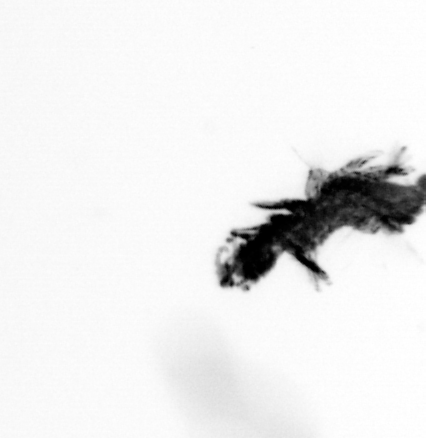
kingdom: Animalia
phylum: Annelida
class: Polychaeta
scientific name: Polychaeta
